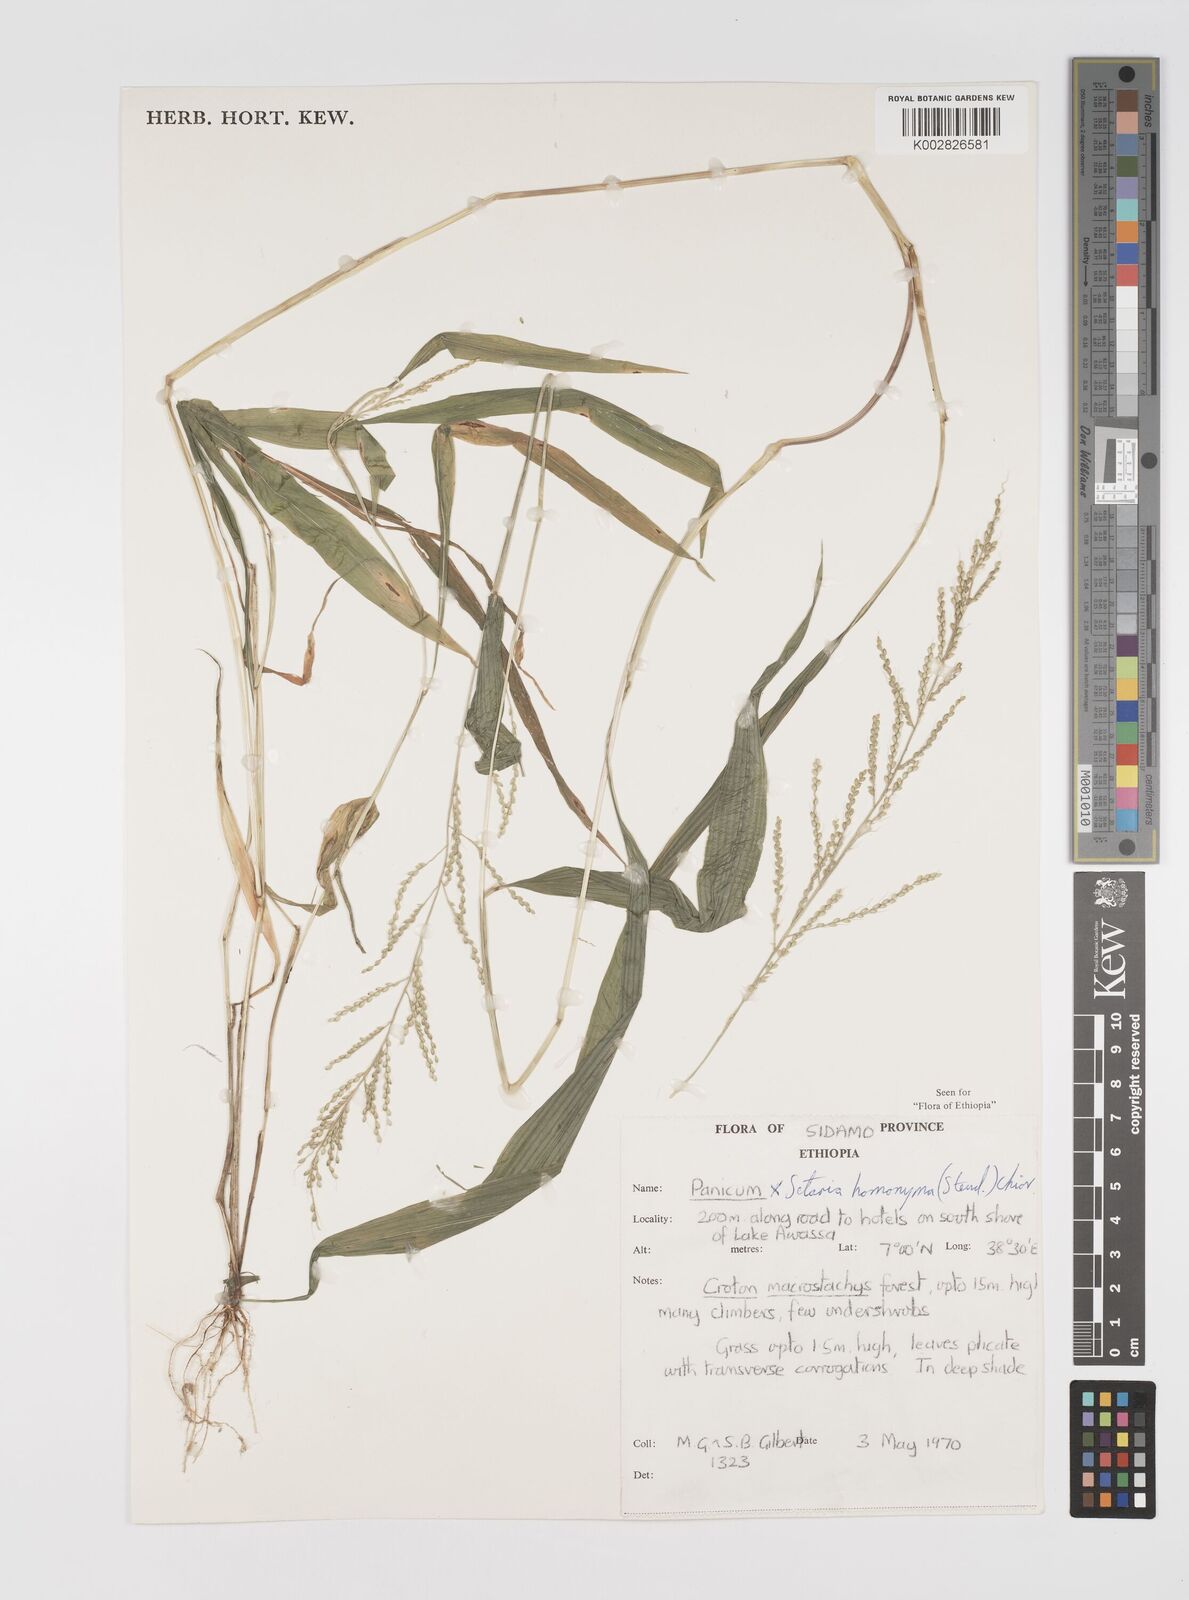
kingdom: Plantae
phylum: Tracheophyta
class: Liliopsida
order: Poales
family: Poaceae
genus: Setaria
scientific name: Setaria homonyma
